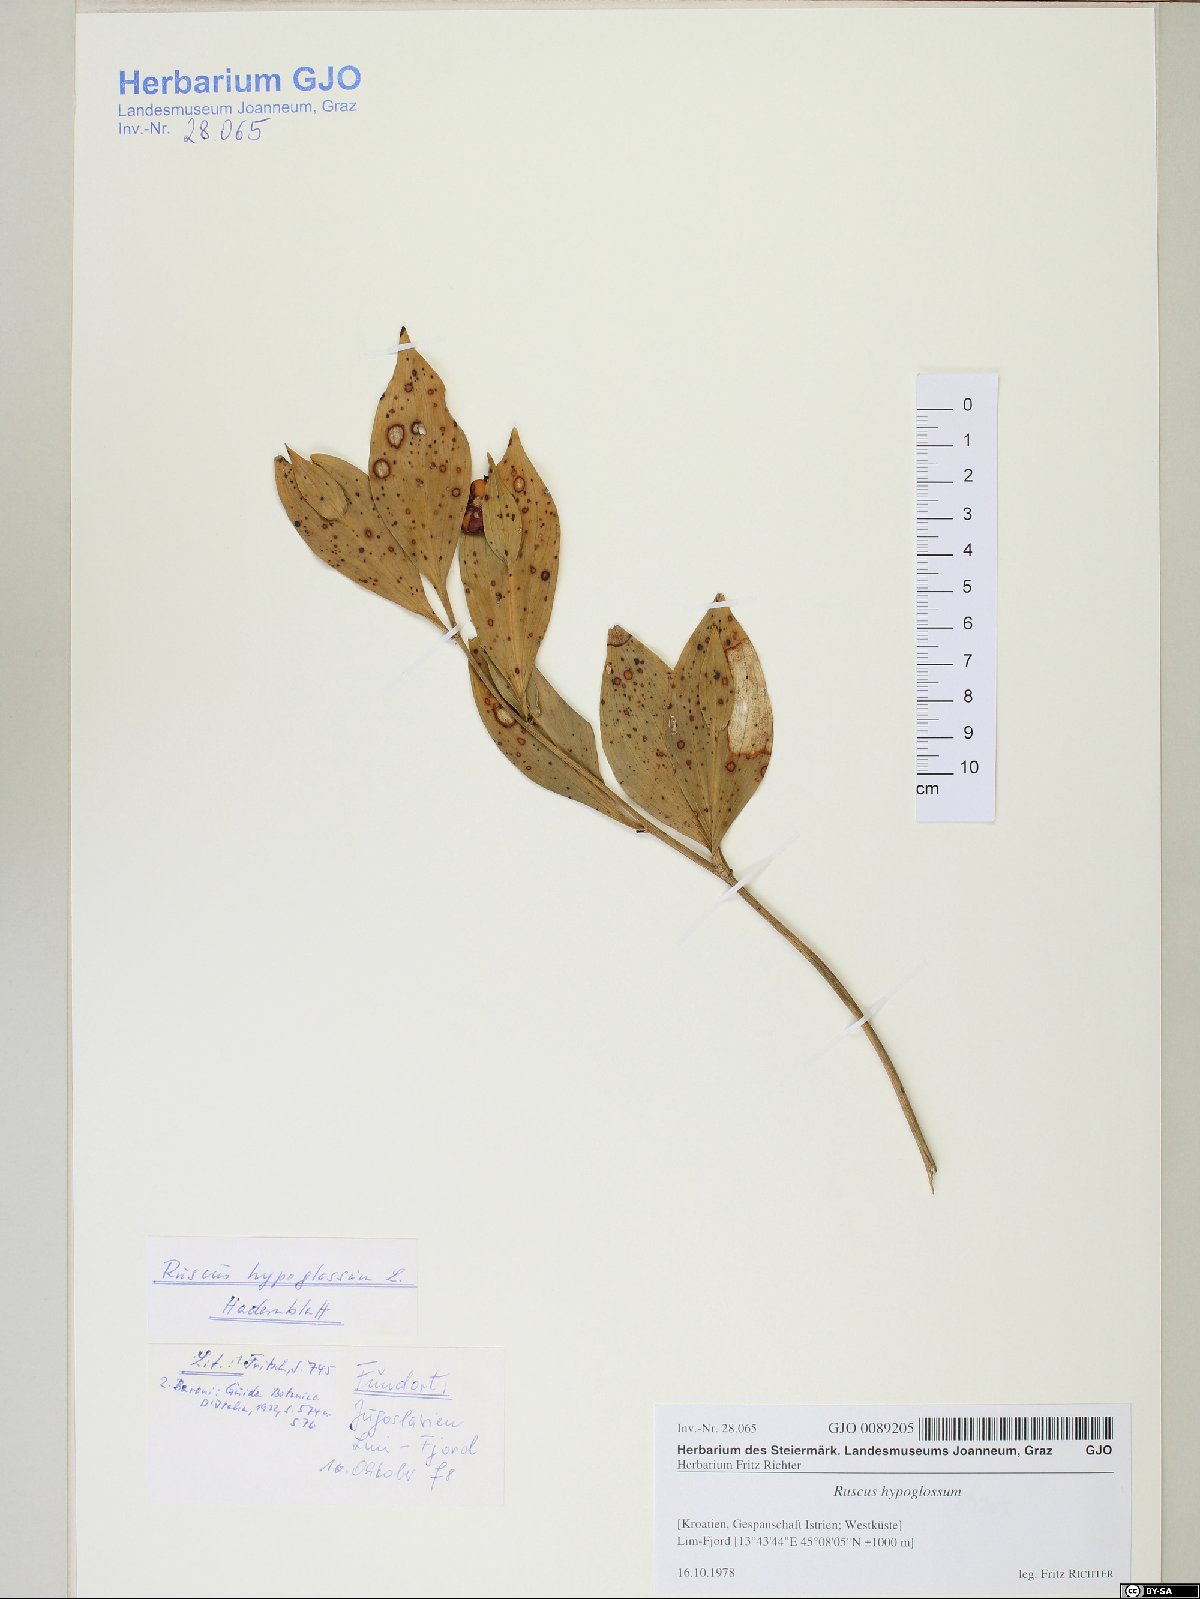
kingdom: Plantae
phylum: Tracheophyta
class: Liliopsida
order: Asparagales
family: Asparagaceae
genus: Ruscus
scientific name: Ruscus hypoglossum
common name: Spineless butcher's-broom
